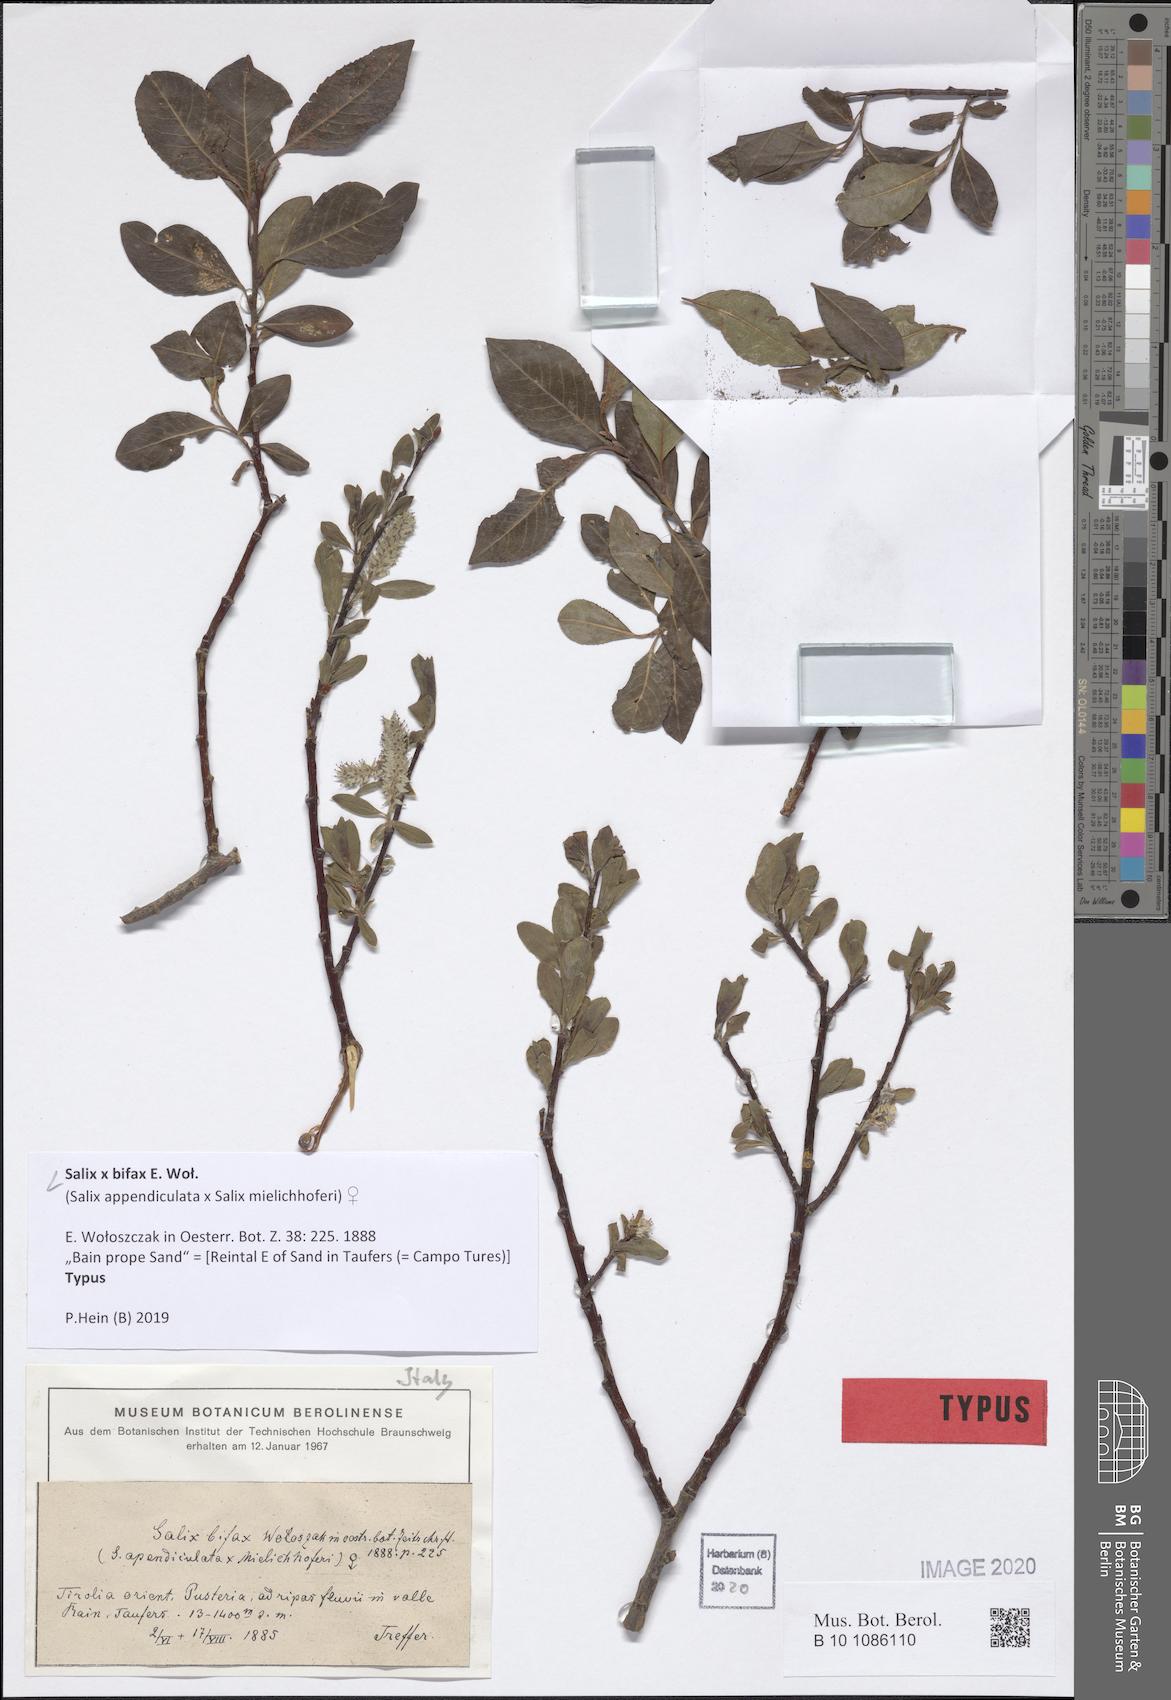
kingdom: Plantae
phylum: Tracheophyta
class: Magnoliopsida
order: Malpighiales
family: Salicaceae
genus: Salix
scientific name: Salix bifax
